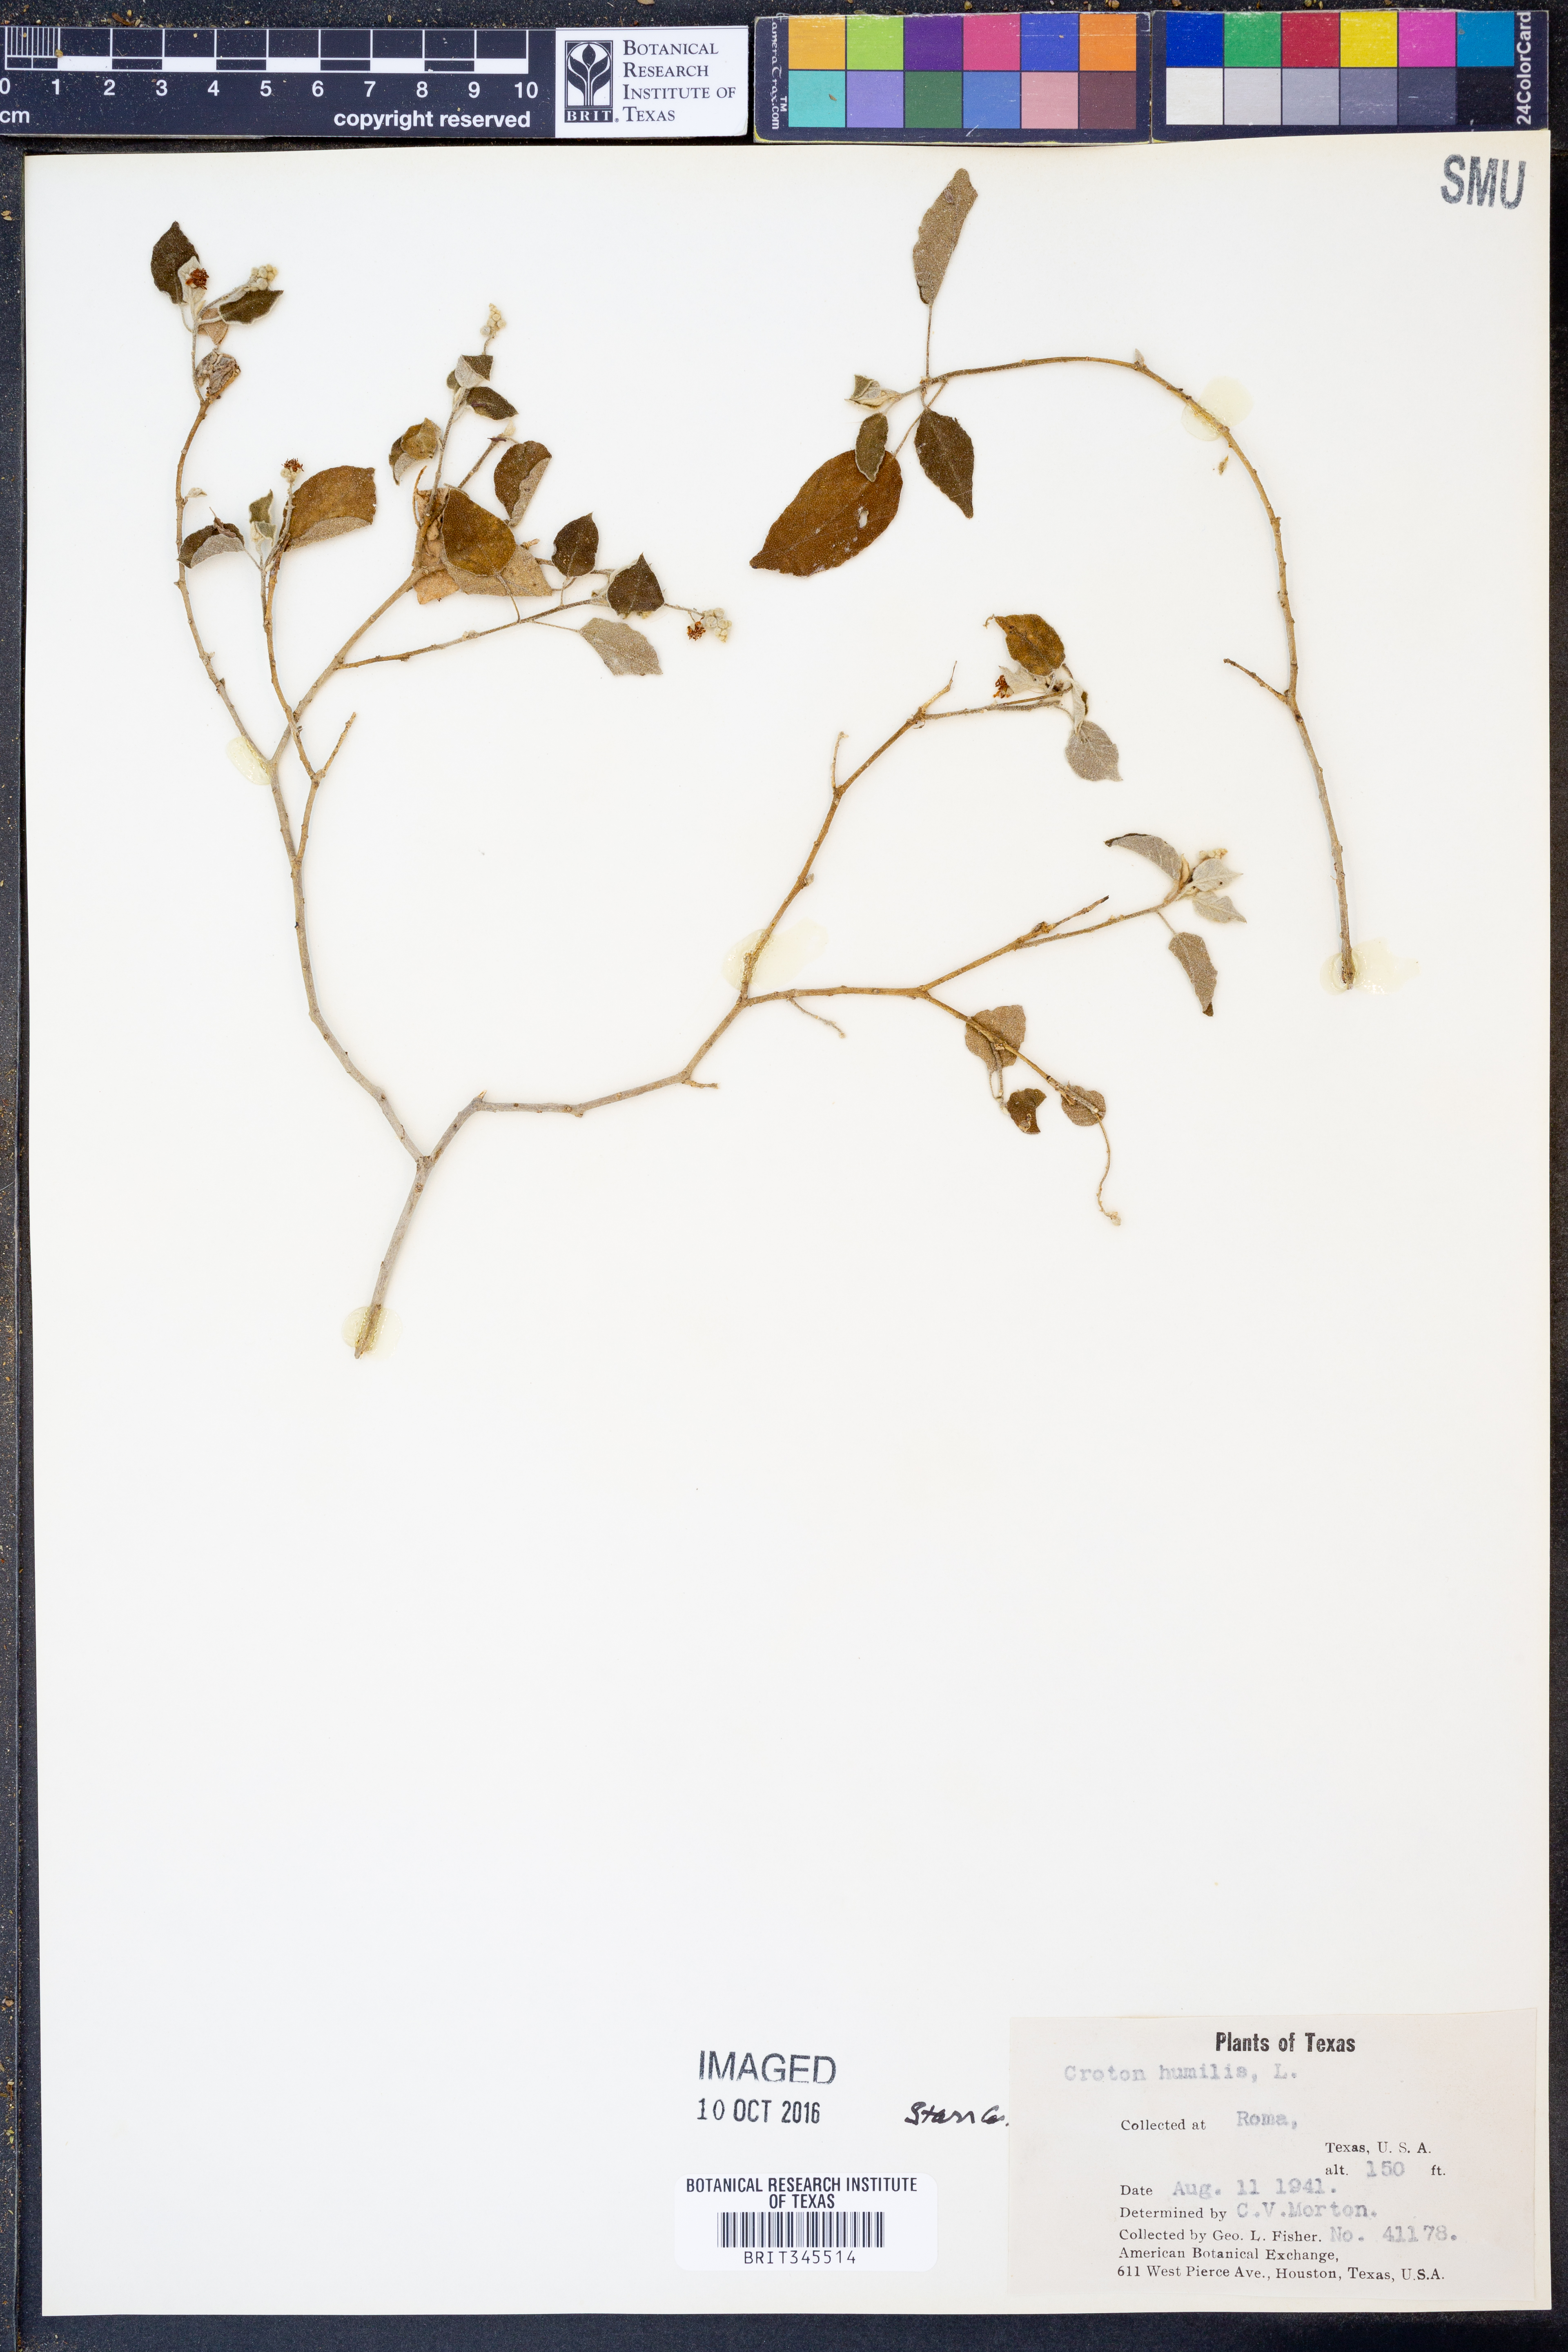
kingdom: Plantae
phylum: Tracheophyta
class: Magnoliopsida
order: Malpighiales
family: Euphorbiaceae
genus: Croton
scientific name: Croton humilis
